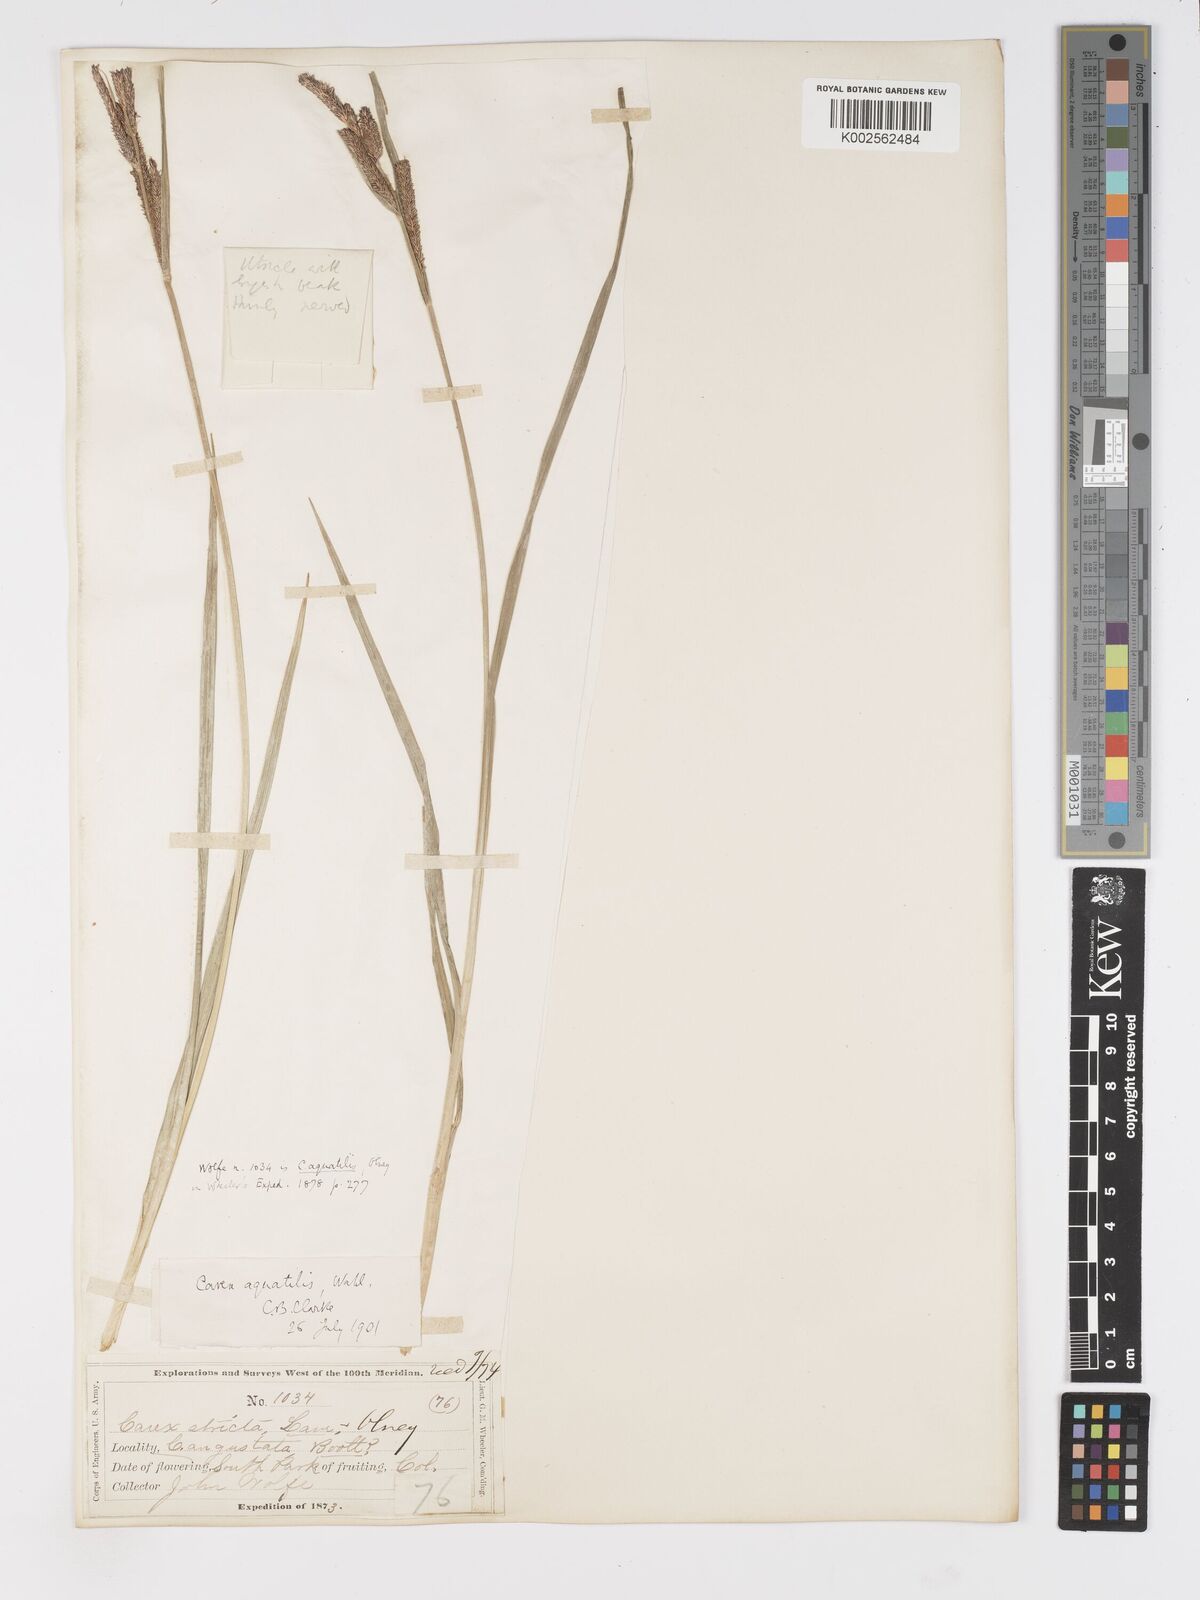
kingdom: Plantae
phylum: Tracheophyta
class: Liliopsida
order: Poales
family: Cyperaceae
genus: Carex
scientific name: Carex
